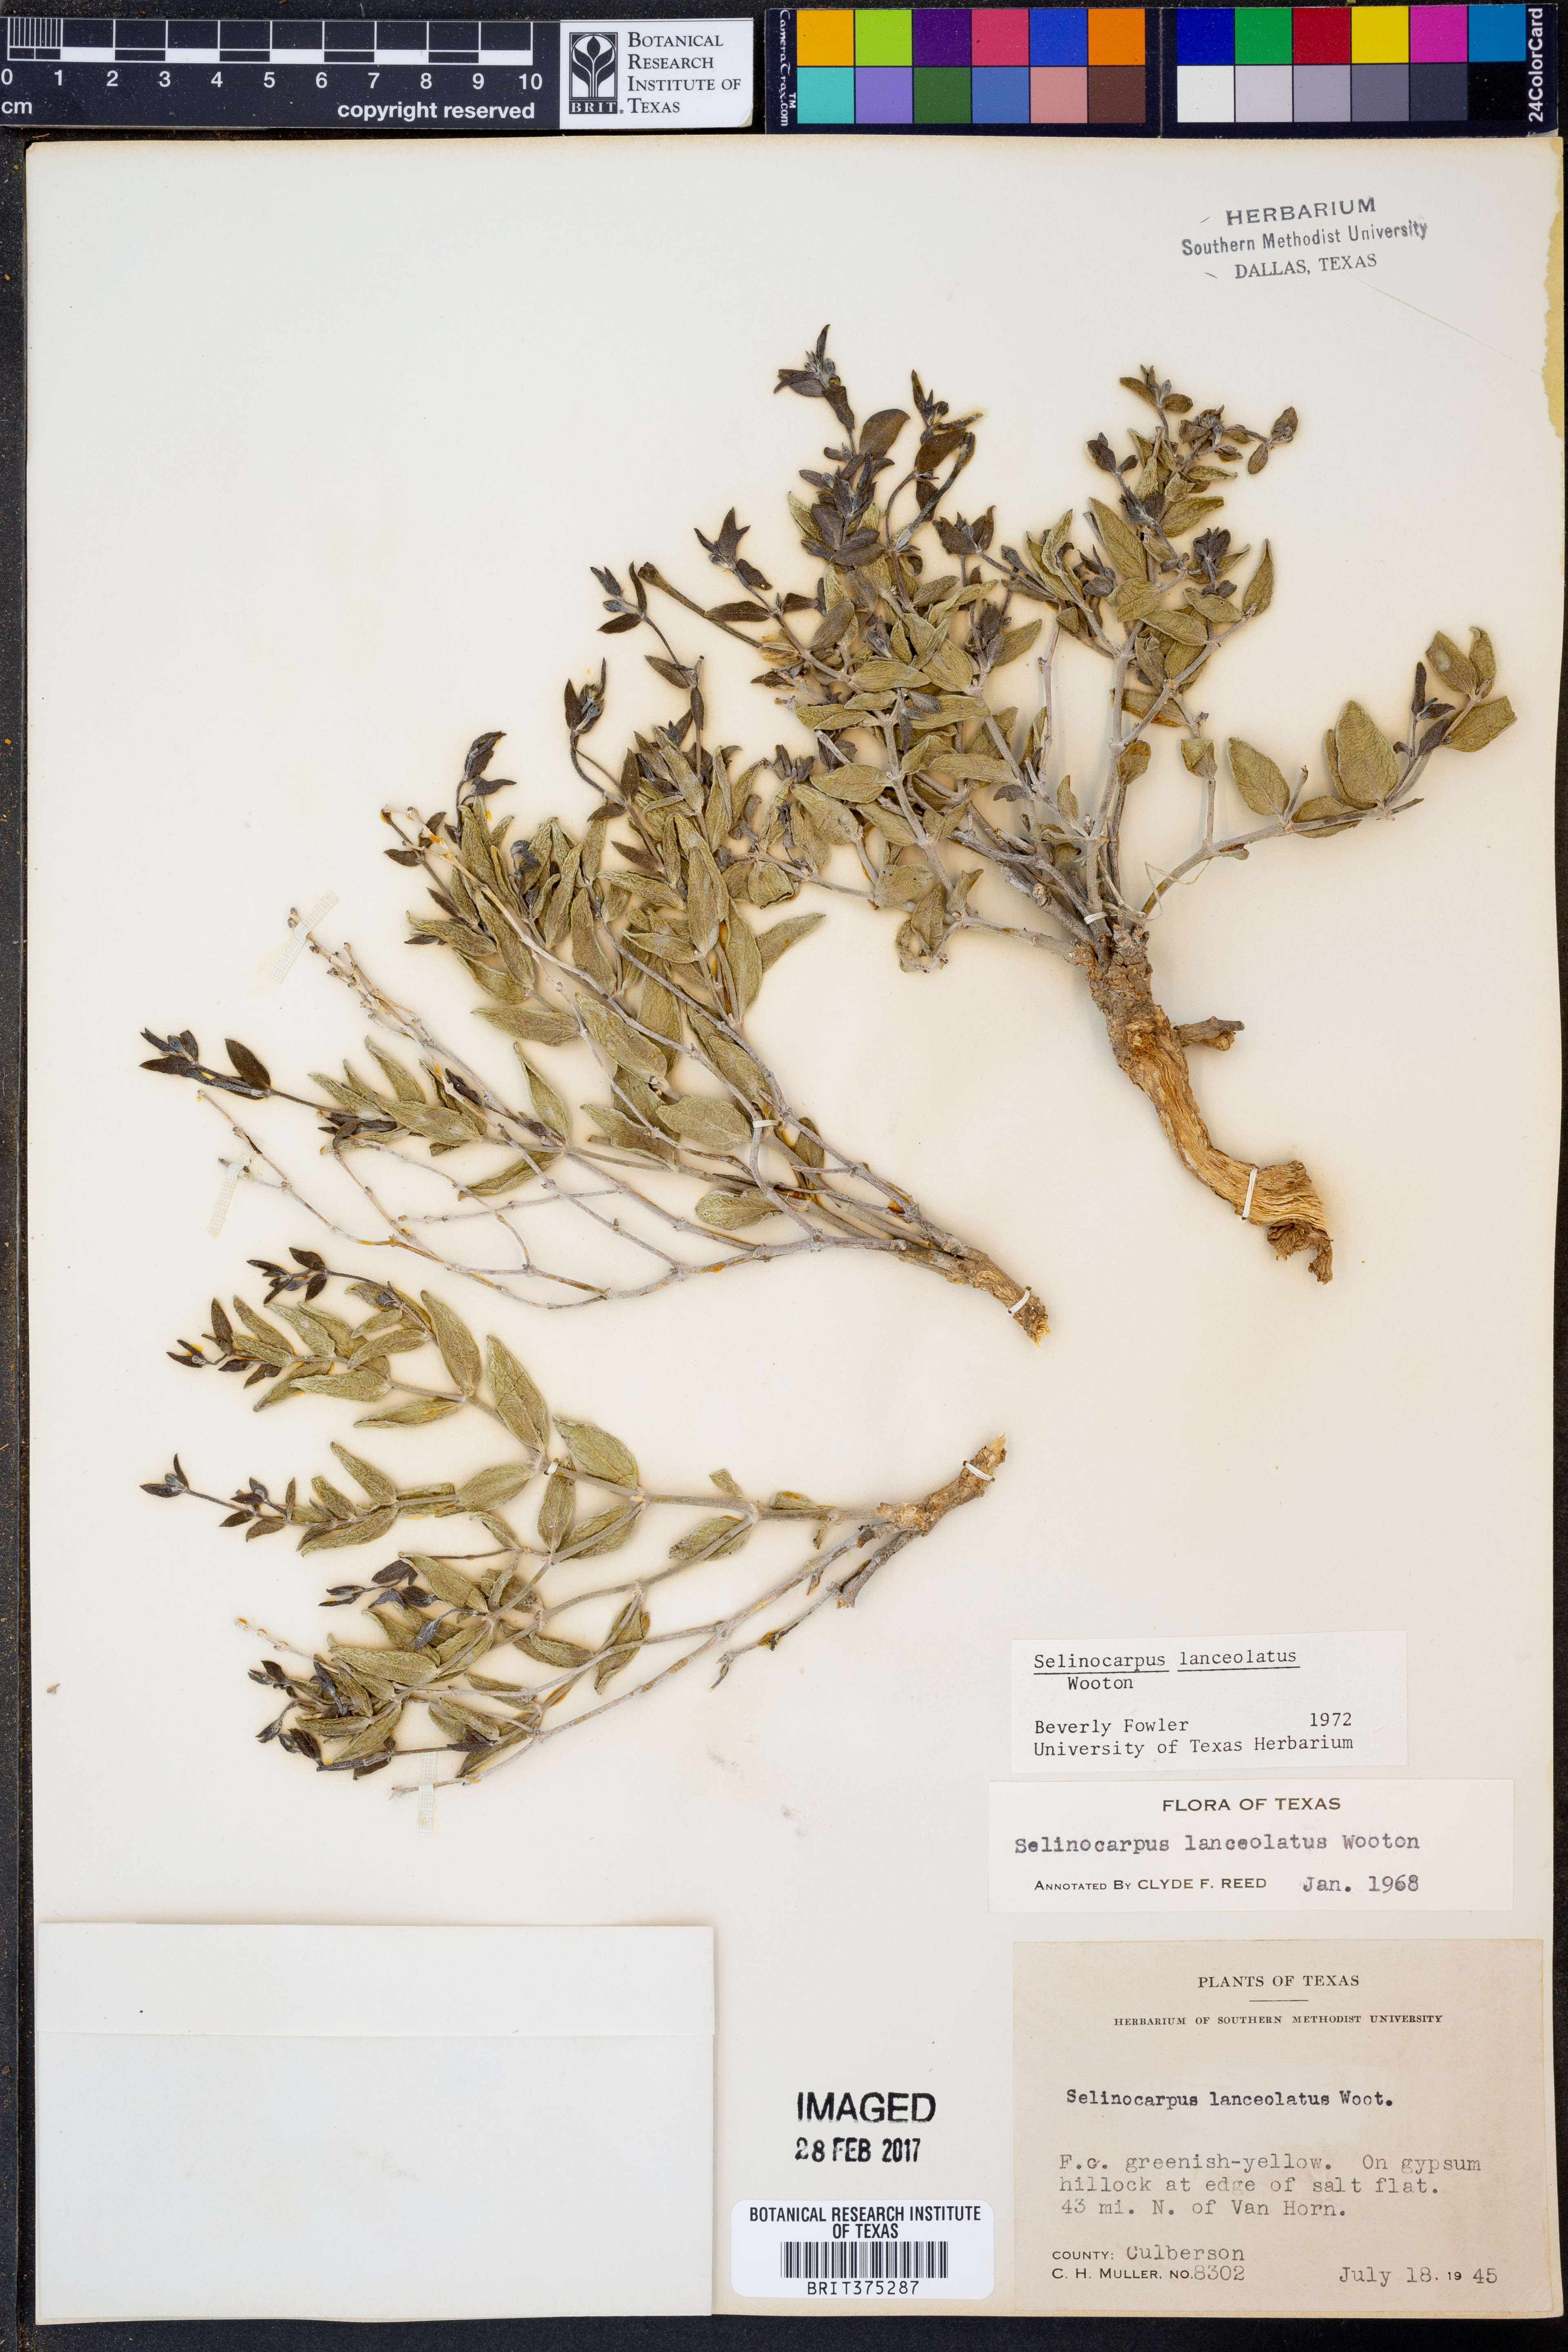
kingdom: Plantae
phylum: Tracheophyta
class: Magnoliopsida
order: Caryophyllales
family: Nyctaginaceae
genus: Acleisanthes
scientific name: Acleisanthes lanceolata
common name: Gypsum moonpod
